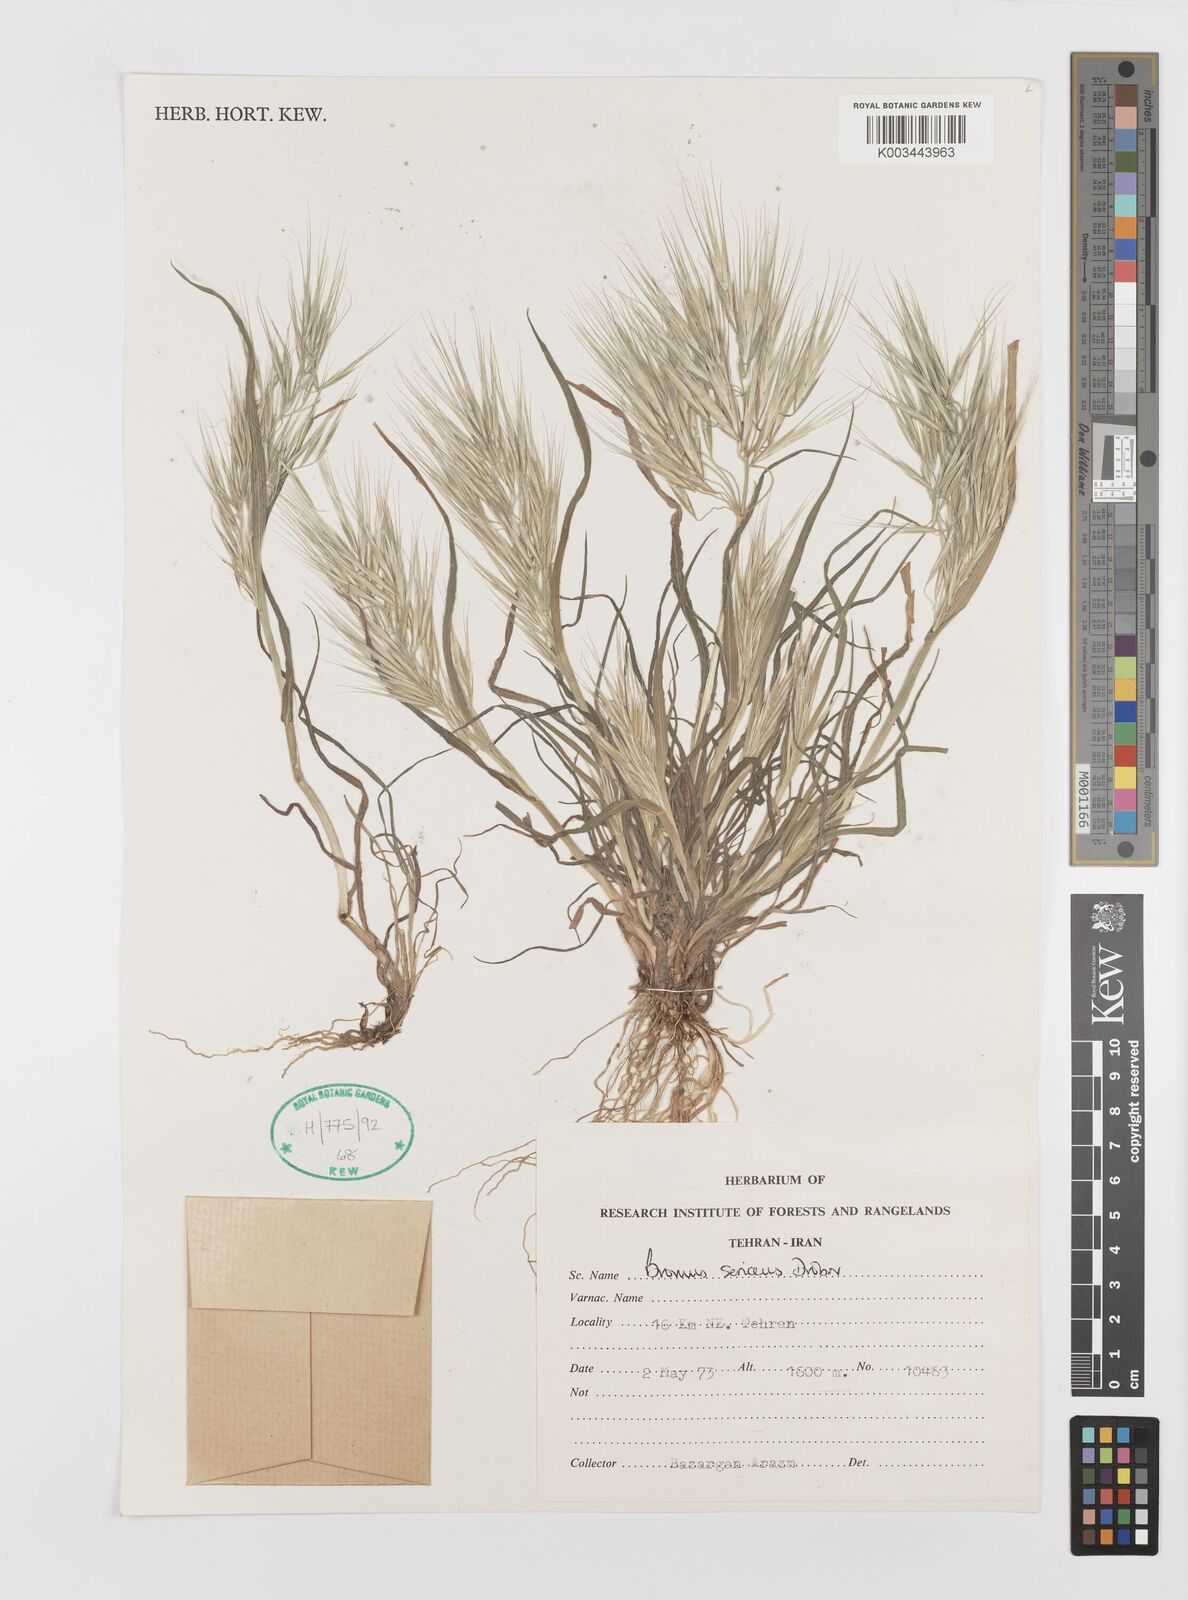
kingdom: Plantae
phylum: Tracheophyta
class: Liliopsida
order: Poales
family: Poaceae
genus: Bromus
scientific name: Bromus moeszii
